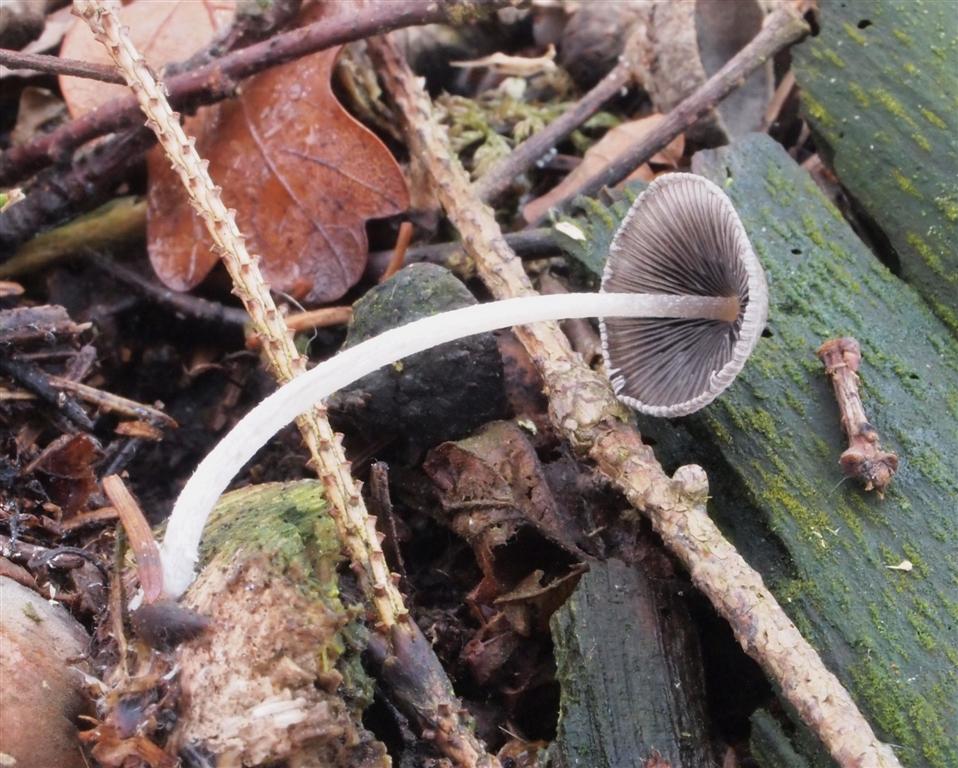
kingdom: Fungi
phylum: Basidiomycota
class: Agaricomycetes
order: Agaricales
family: Psathyrellaceae
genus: Coprinopsis
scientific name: Coprinopsis echinospora
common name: fuglemøg-blækhat
